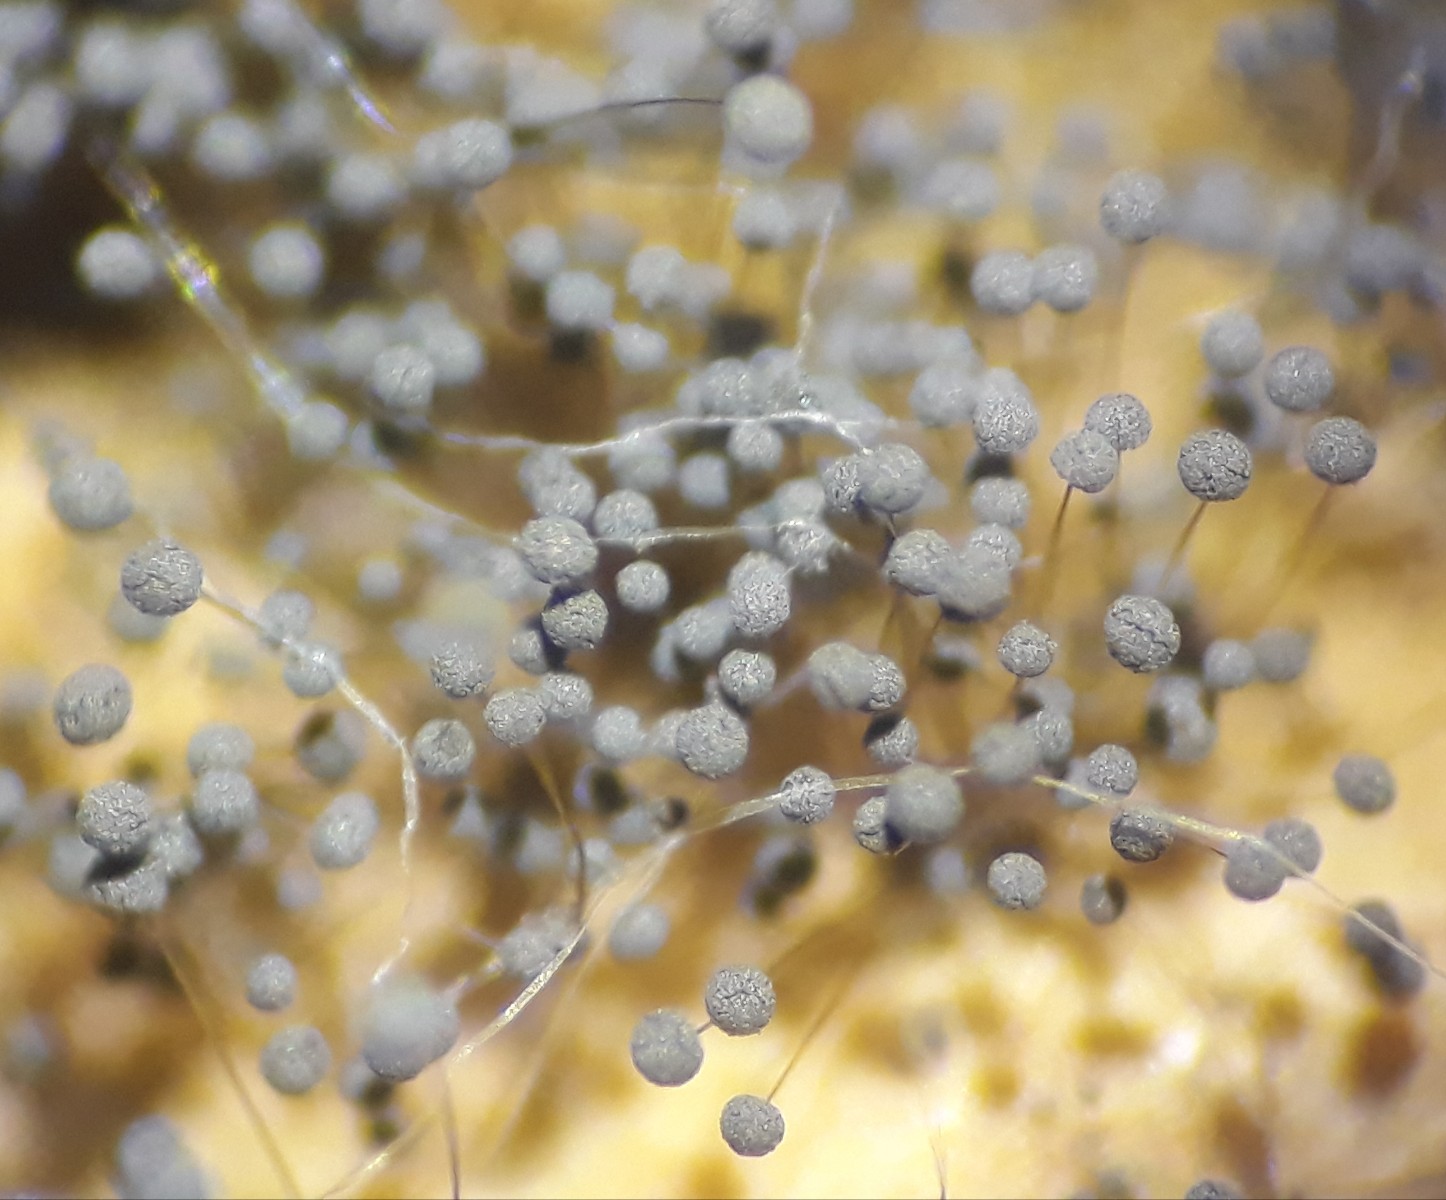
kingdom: Fungi
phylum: Mucoromycota
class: Mucoromycetes
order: Mucorales
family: Rhizopodaceae
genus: Rhizopus
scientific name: Rhizopus
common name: løbenål
